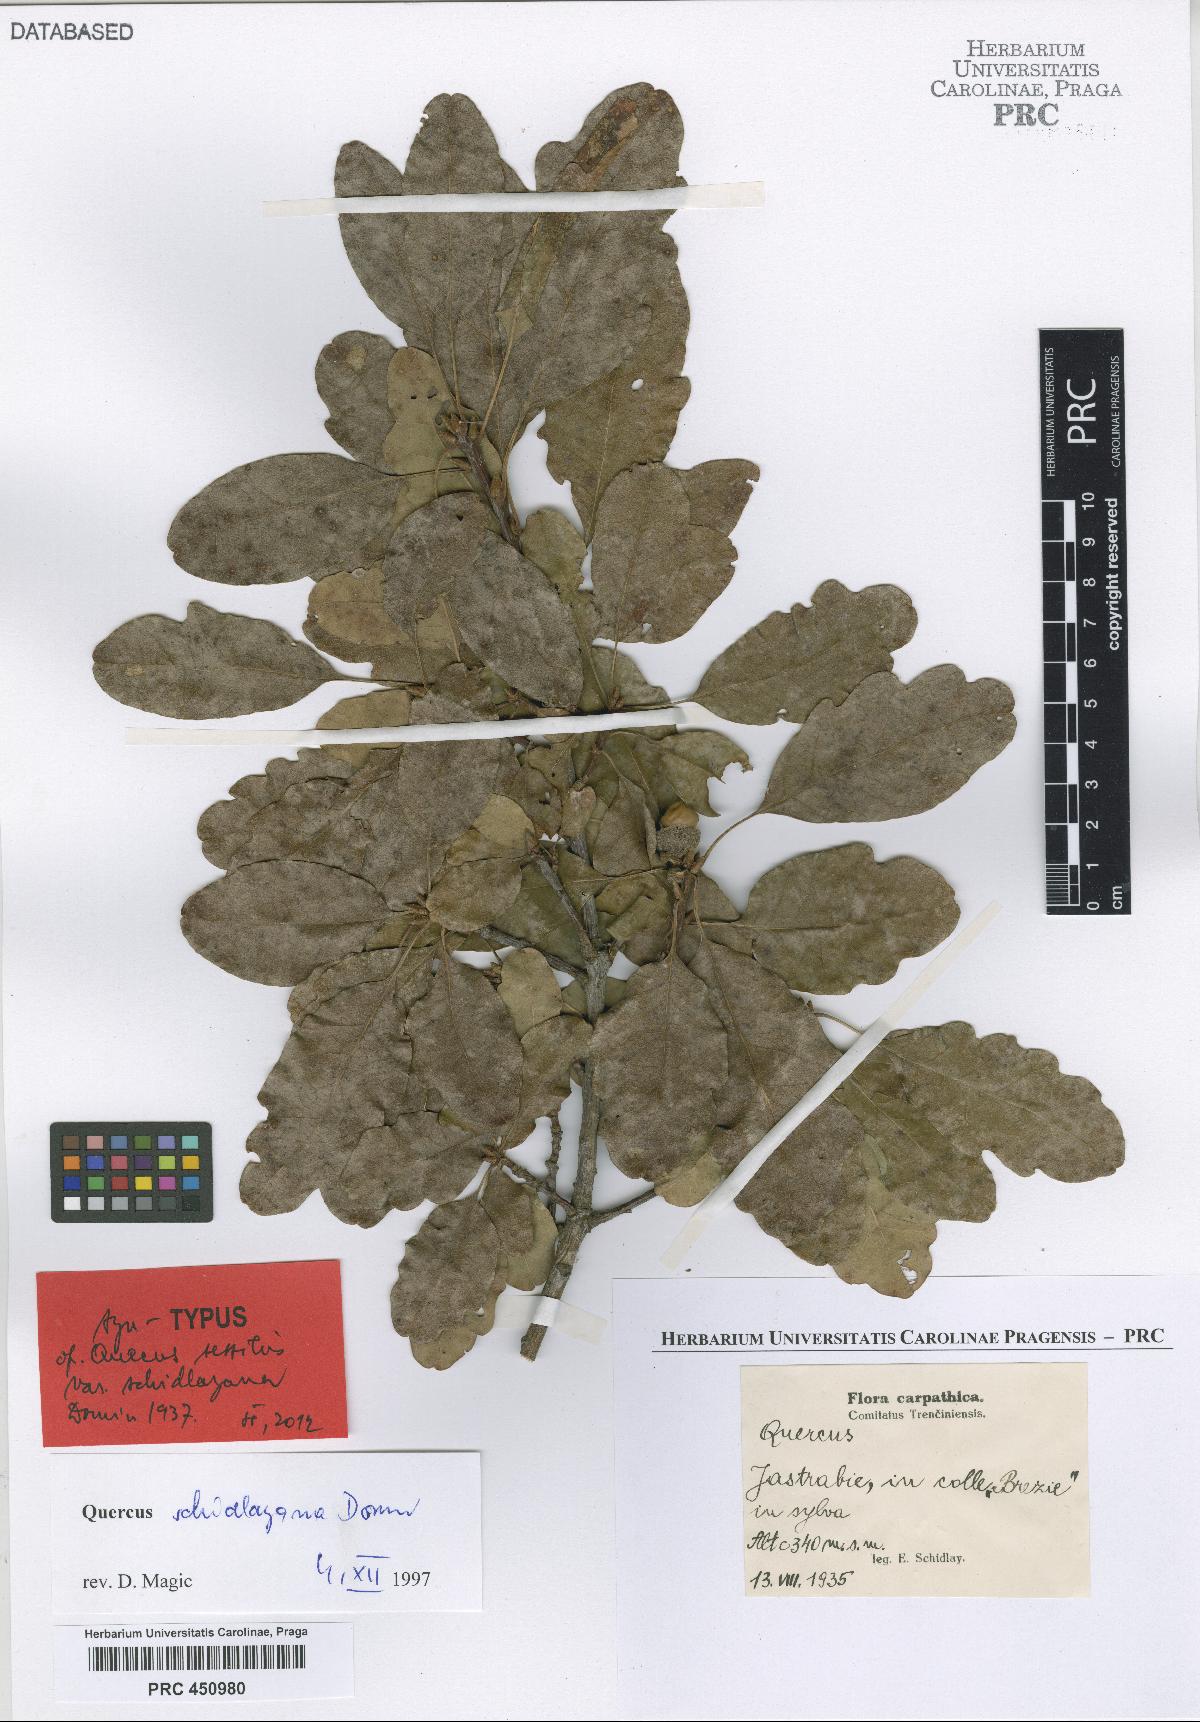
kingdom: Plantae
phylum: Tracheophyta
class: Magnoliopsida
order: Fagales
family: Fagaceae
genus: Quercus
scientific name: Quercus petraea
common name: Sessile oak
